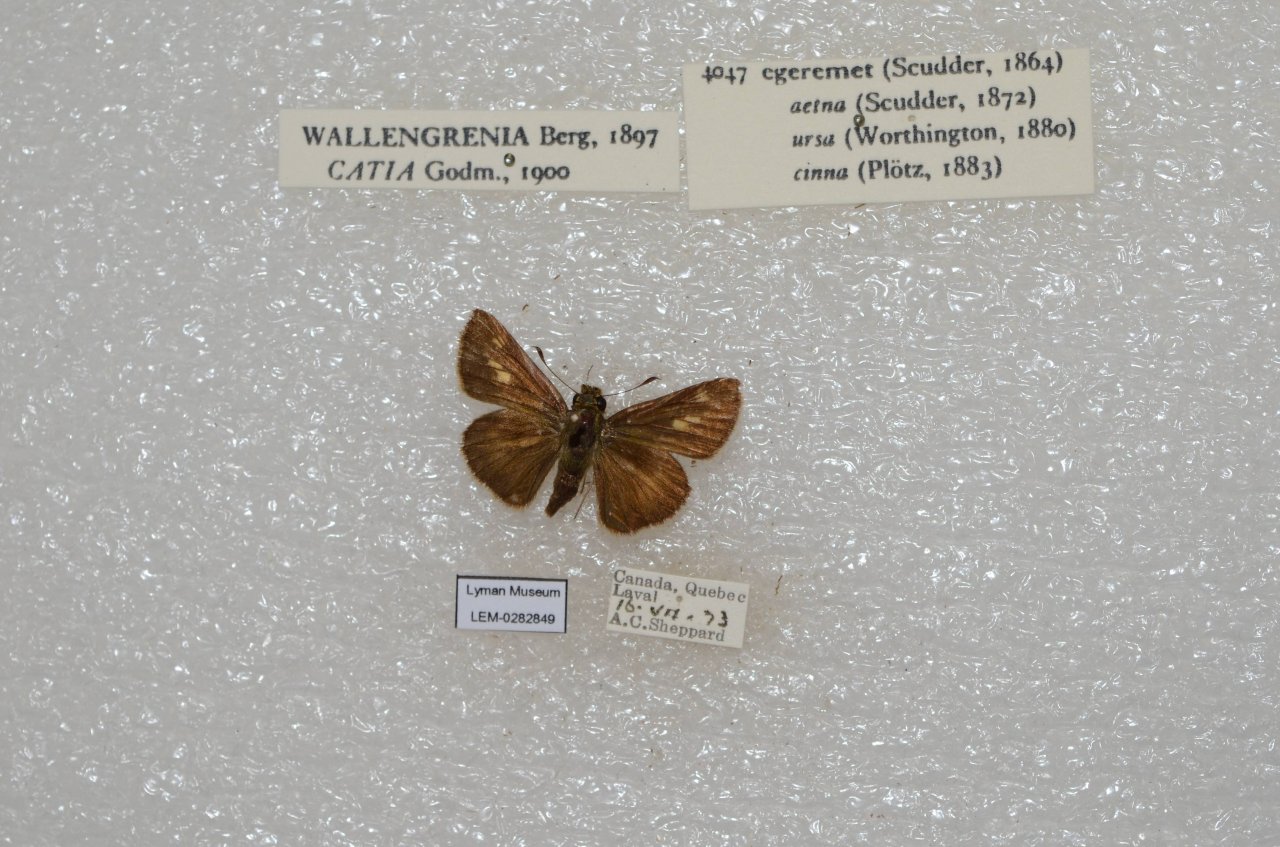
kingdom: Animalia
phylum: Arthropoda
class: Insecta
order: Lepidoptera
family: Hesperiidae
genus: Polites
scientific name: Polites egeremet
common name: Northern Broken-Dash
